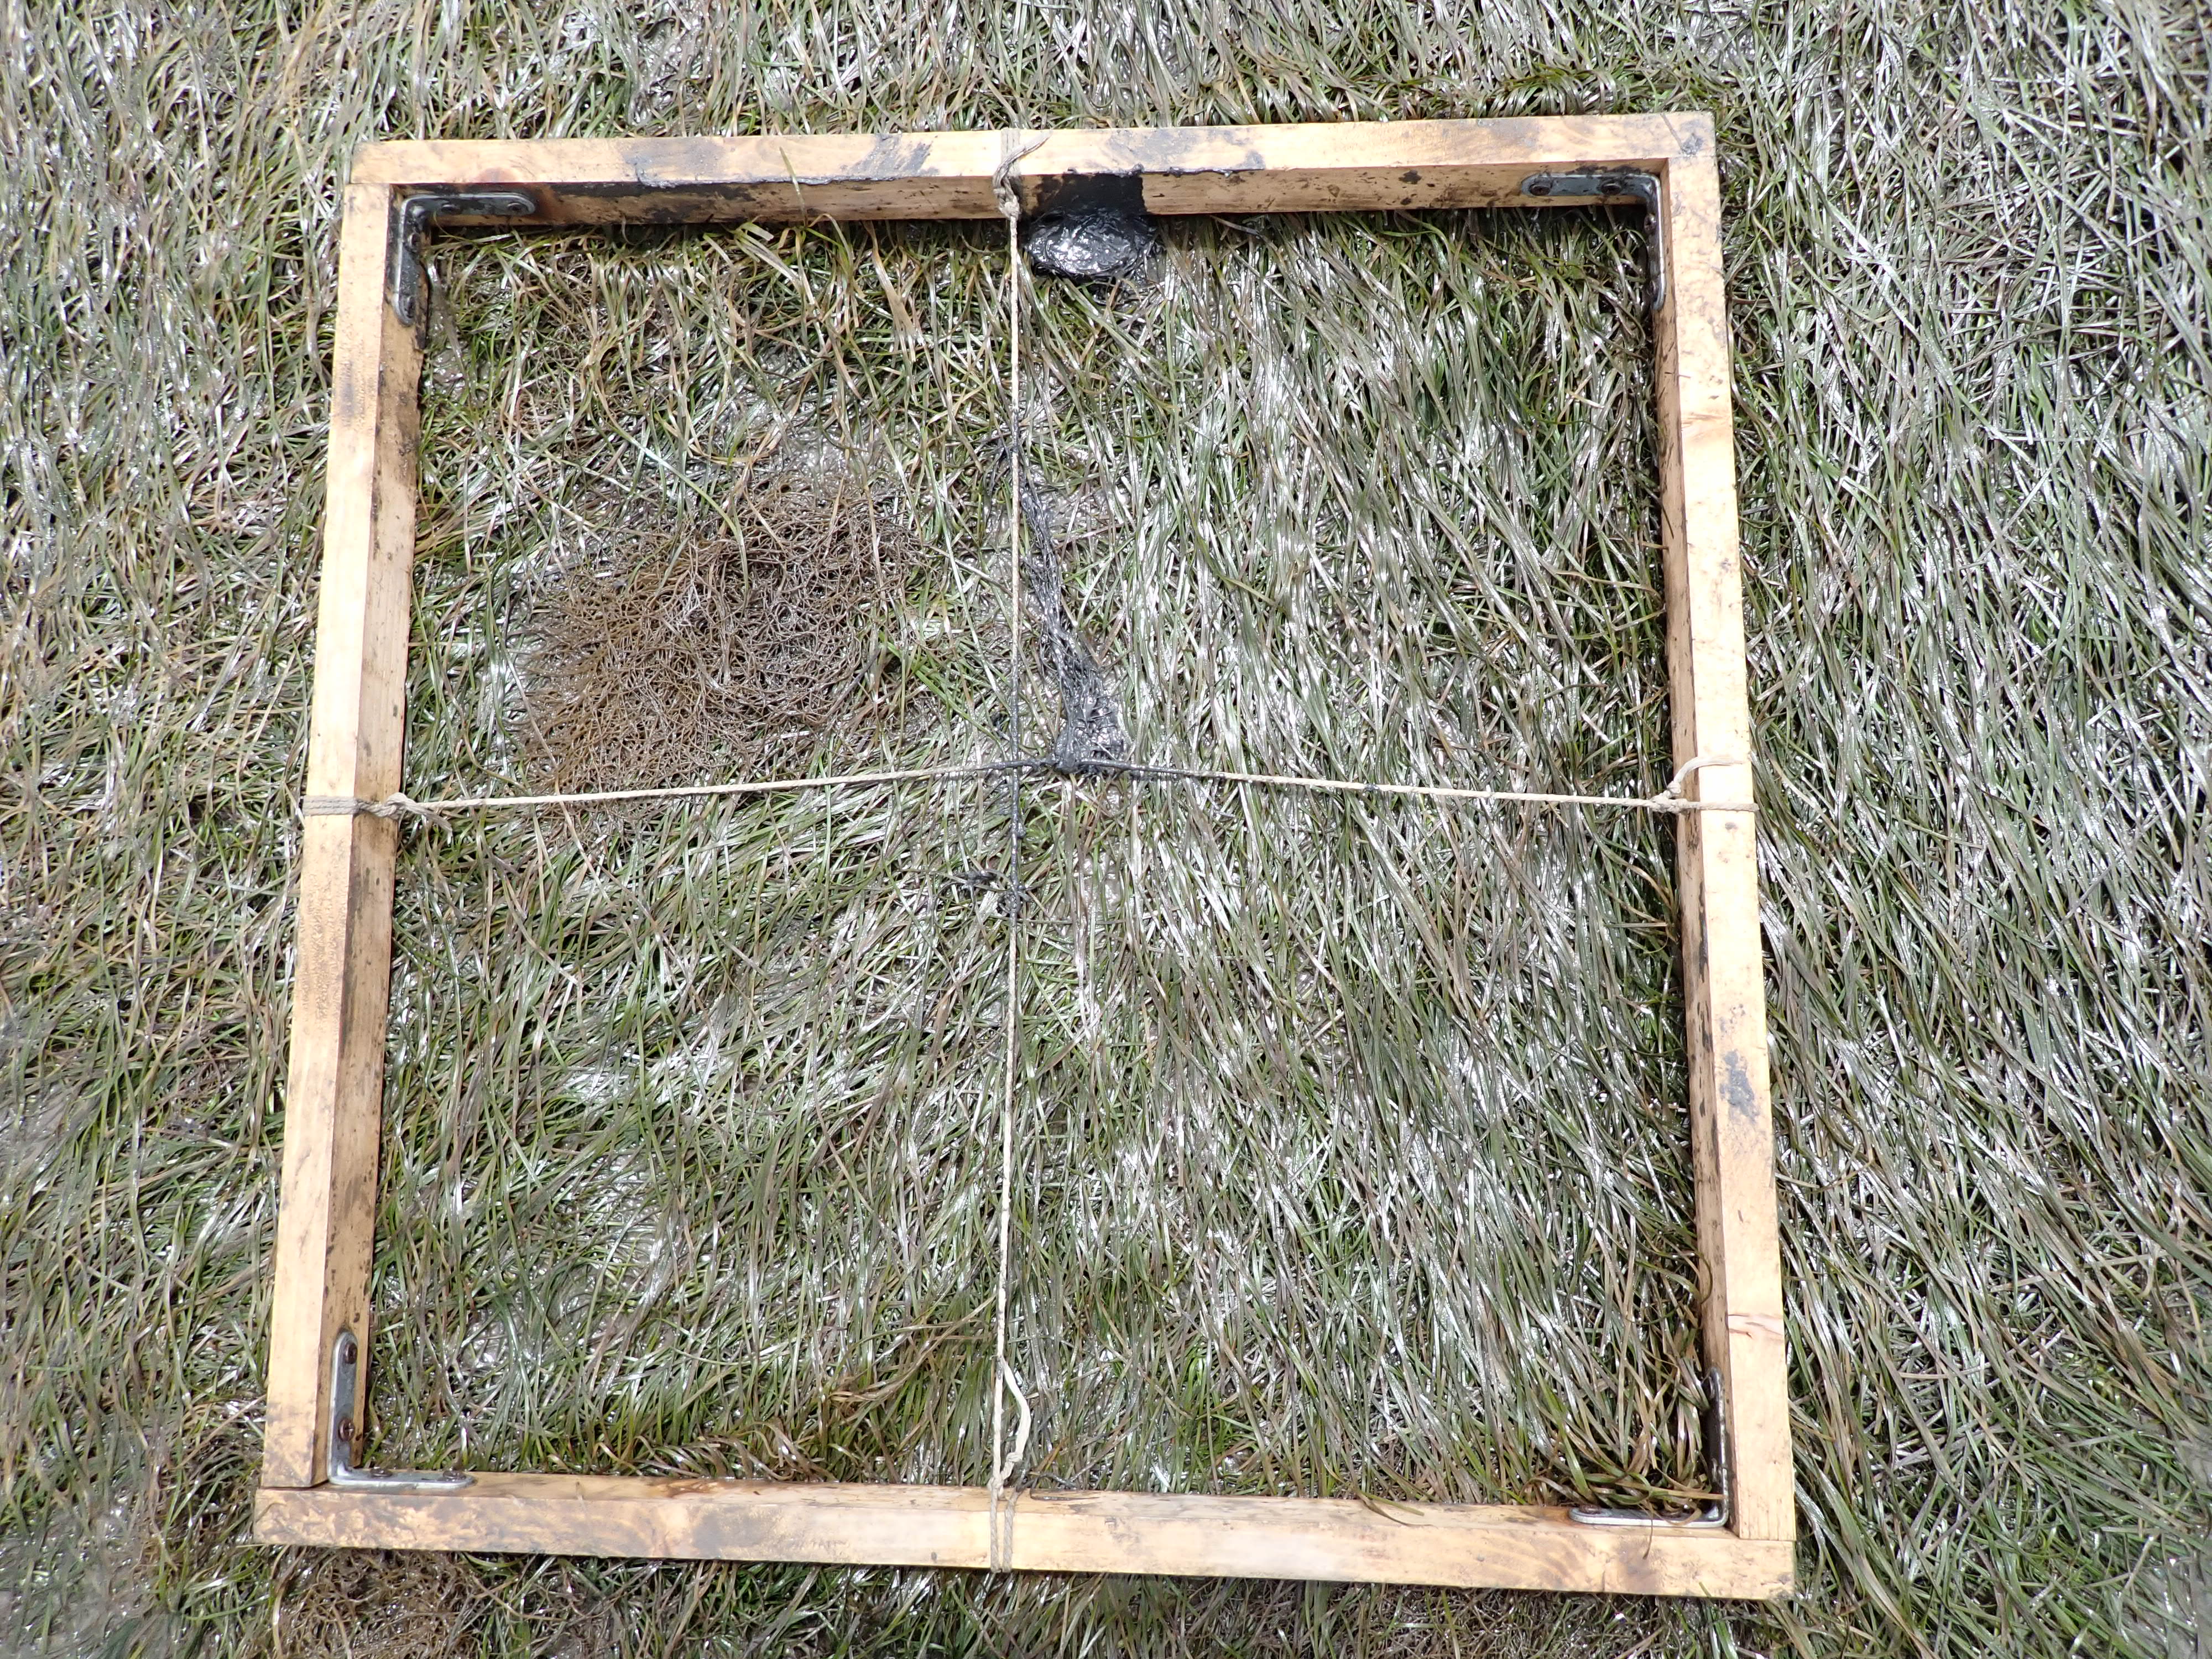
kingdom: Plantae
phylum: Rhodophyta
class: Florideophyceae
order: Gracilariales
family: Gracilariaceae
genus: Gracilaria
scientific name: Gracilaria vermiculophylla
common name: Algae
